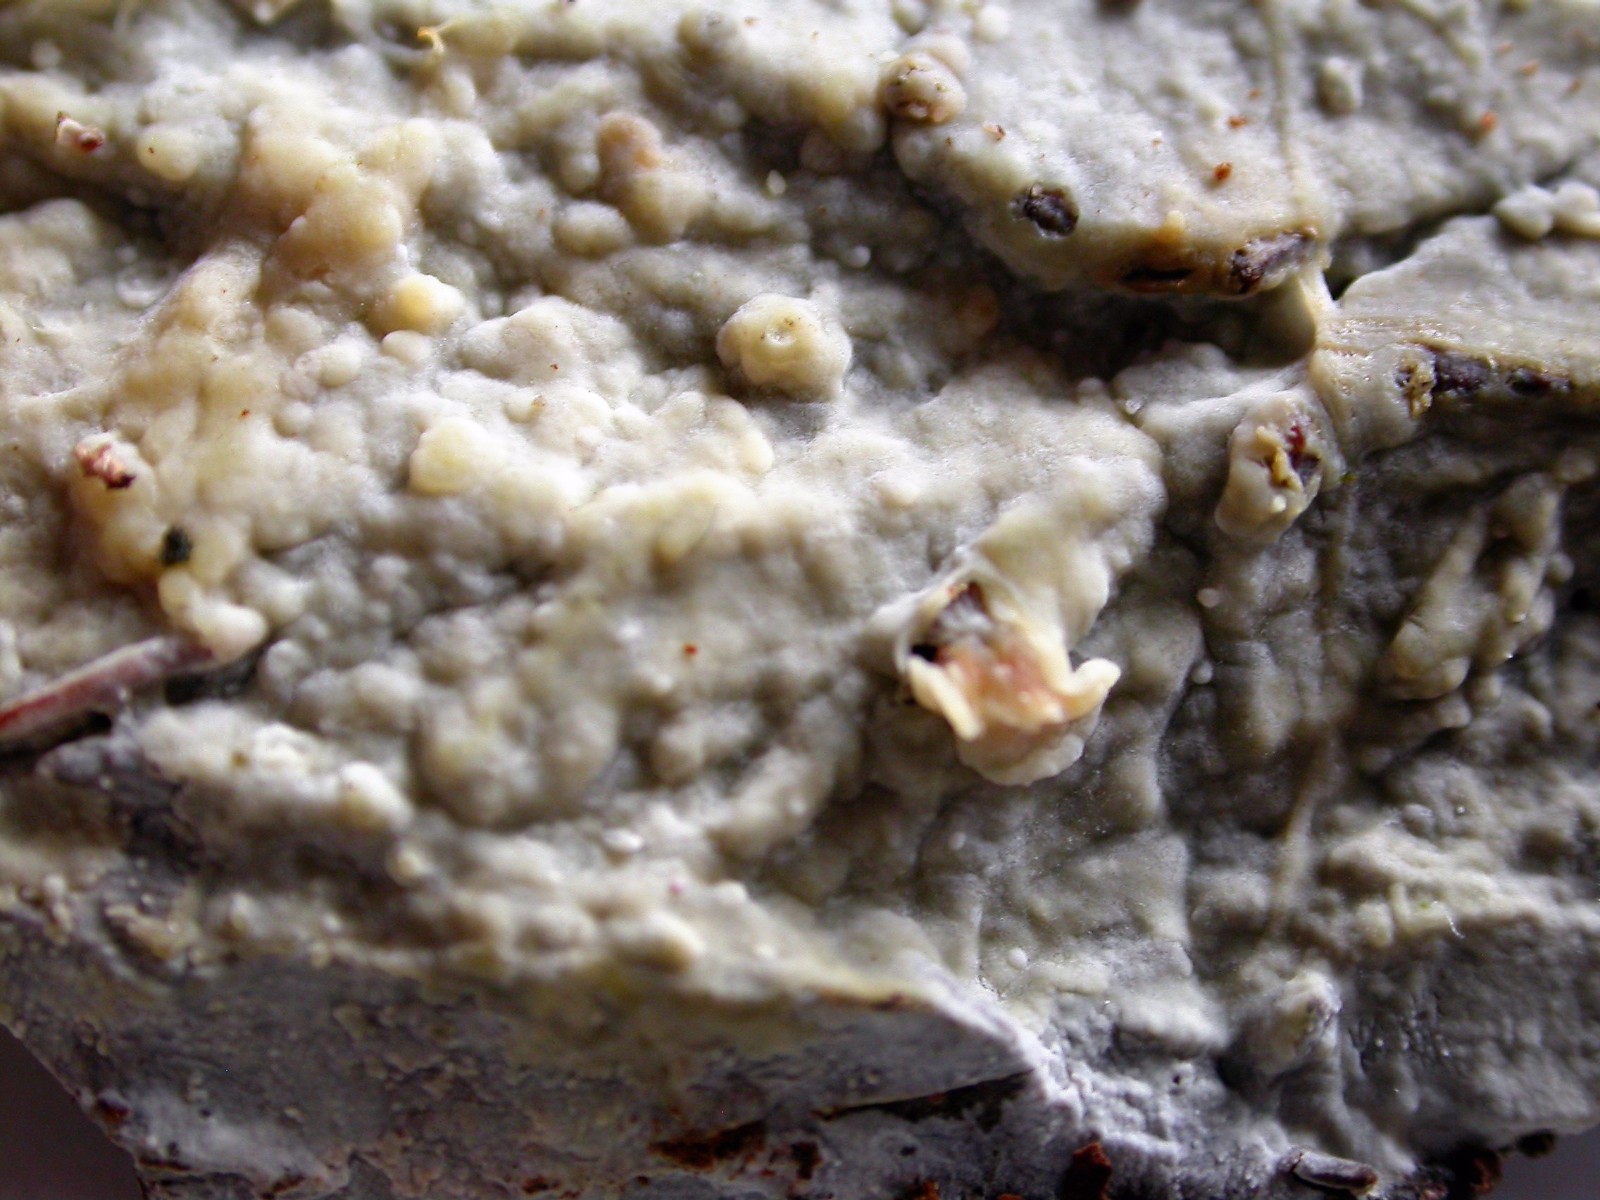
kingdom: Fungi
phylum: Basidiomycota
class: Agaricomycetes
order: Russulales
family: Peniophoraceae
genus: Gloiothele
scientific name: Gloiothele lactescens
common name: bitter olieskind
